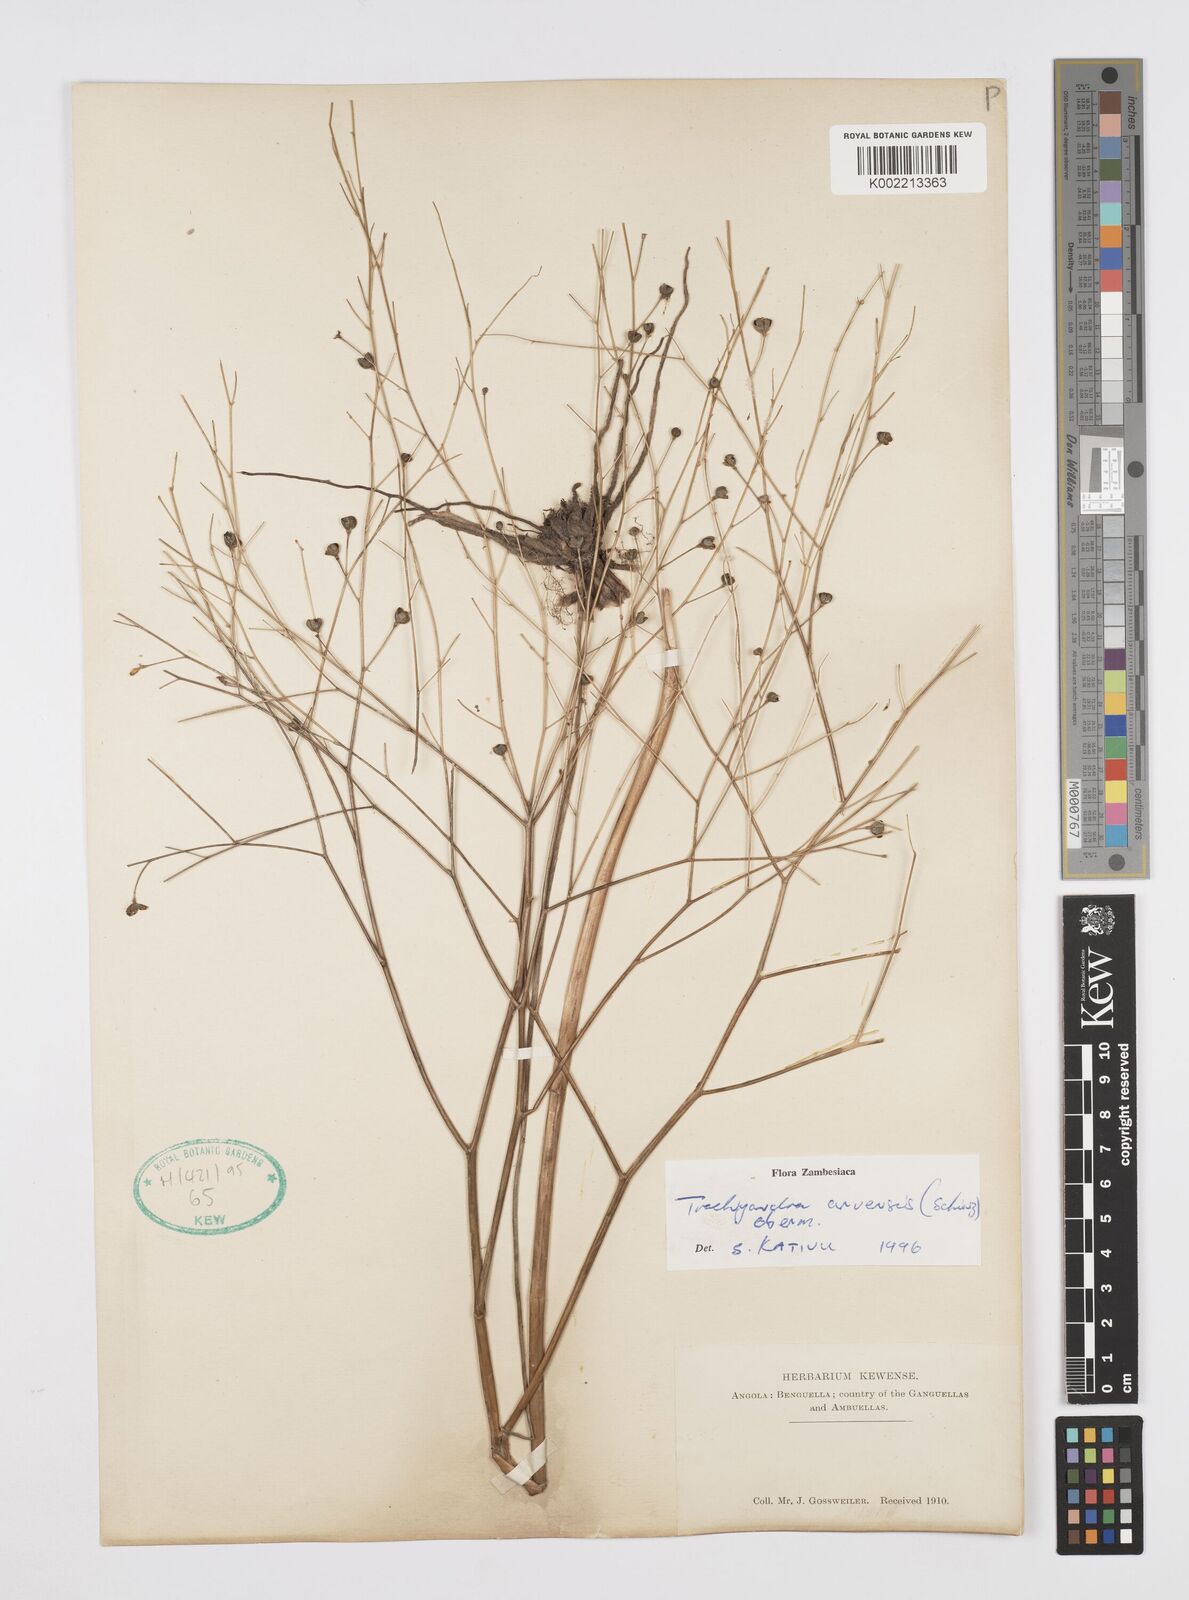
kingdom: Plantae
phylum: Tracheophyta
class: Liliopsida
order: Asparagales
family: Asphodelaceae
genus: Trachyandra
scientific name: Trachyandra arvensis
